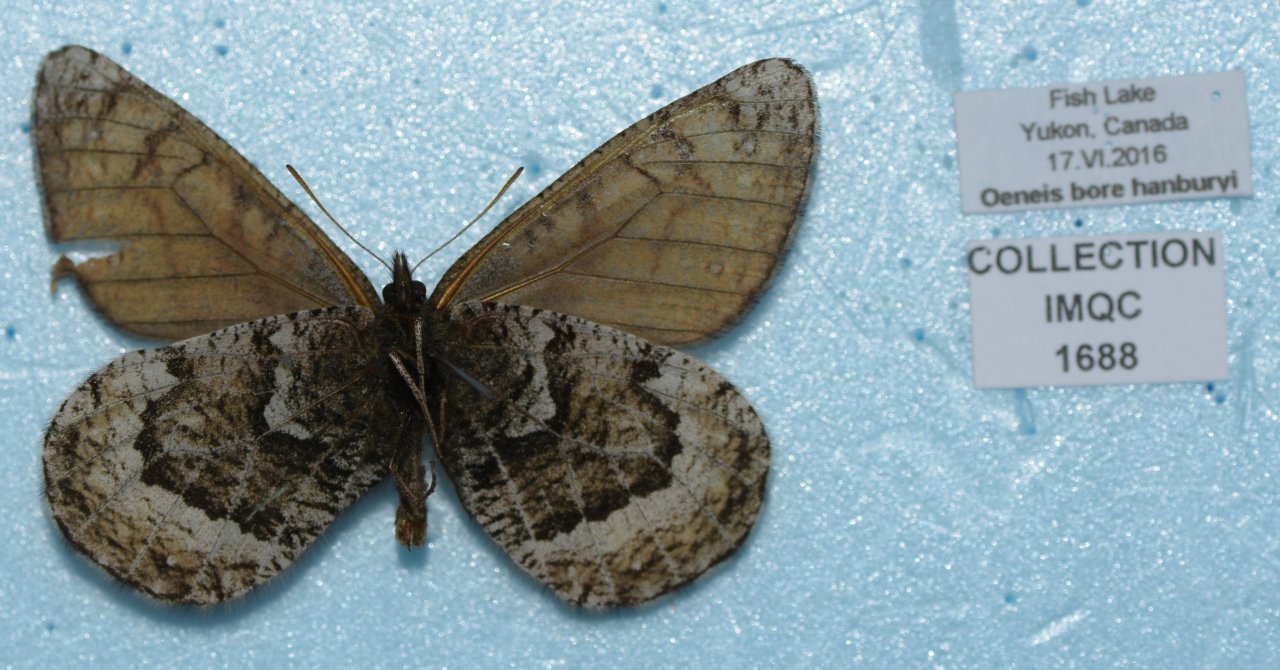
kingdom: Animalia
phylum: Arthropoda
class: Insecta
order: Lepidoptera
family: Nymphalidae
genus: Oeneis
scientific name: Oeneis bore
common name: White-veined Arctic
